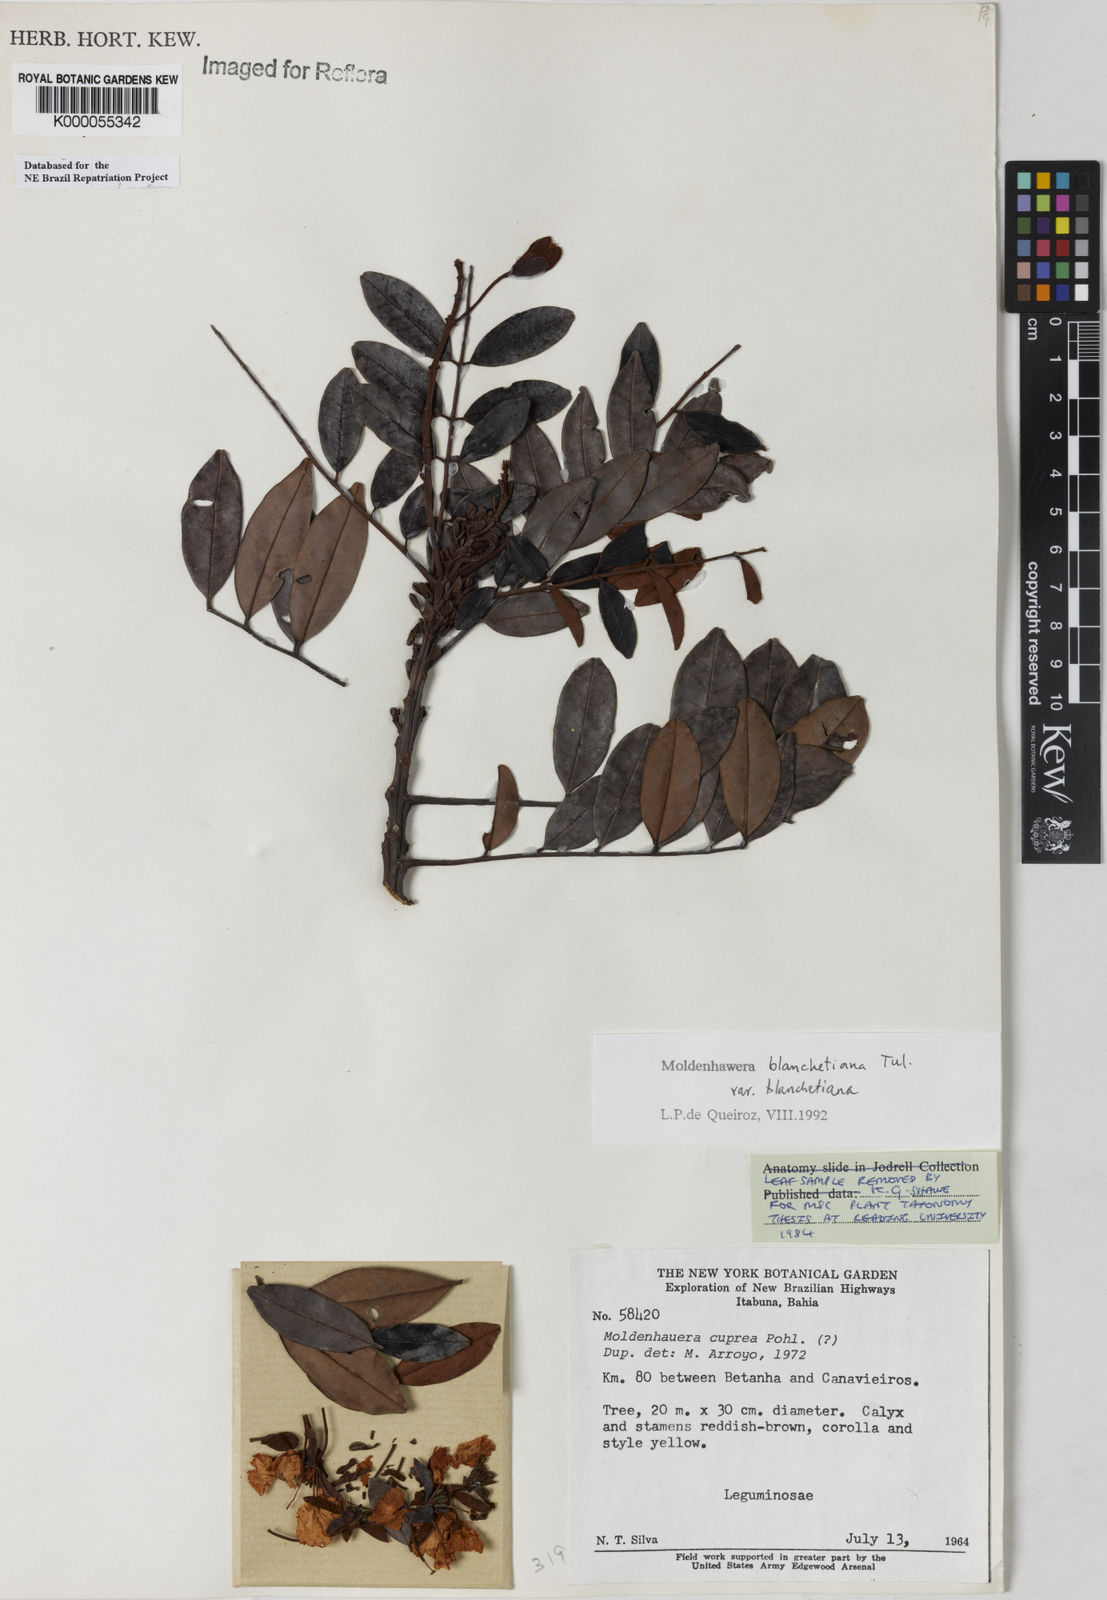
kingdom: Plantae
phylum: Tracheophyta
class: Magnoliopsida
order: Fabales
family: Fabaceae
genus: Moldenhawera
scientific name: Moldenhawera blanchetiana
